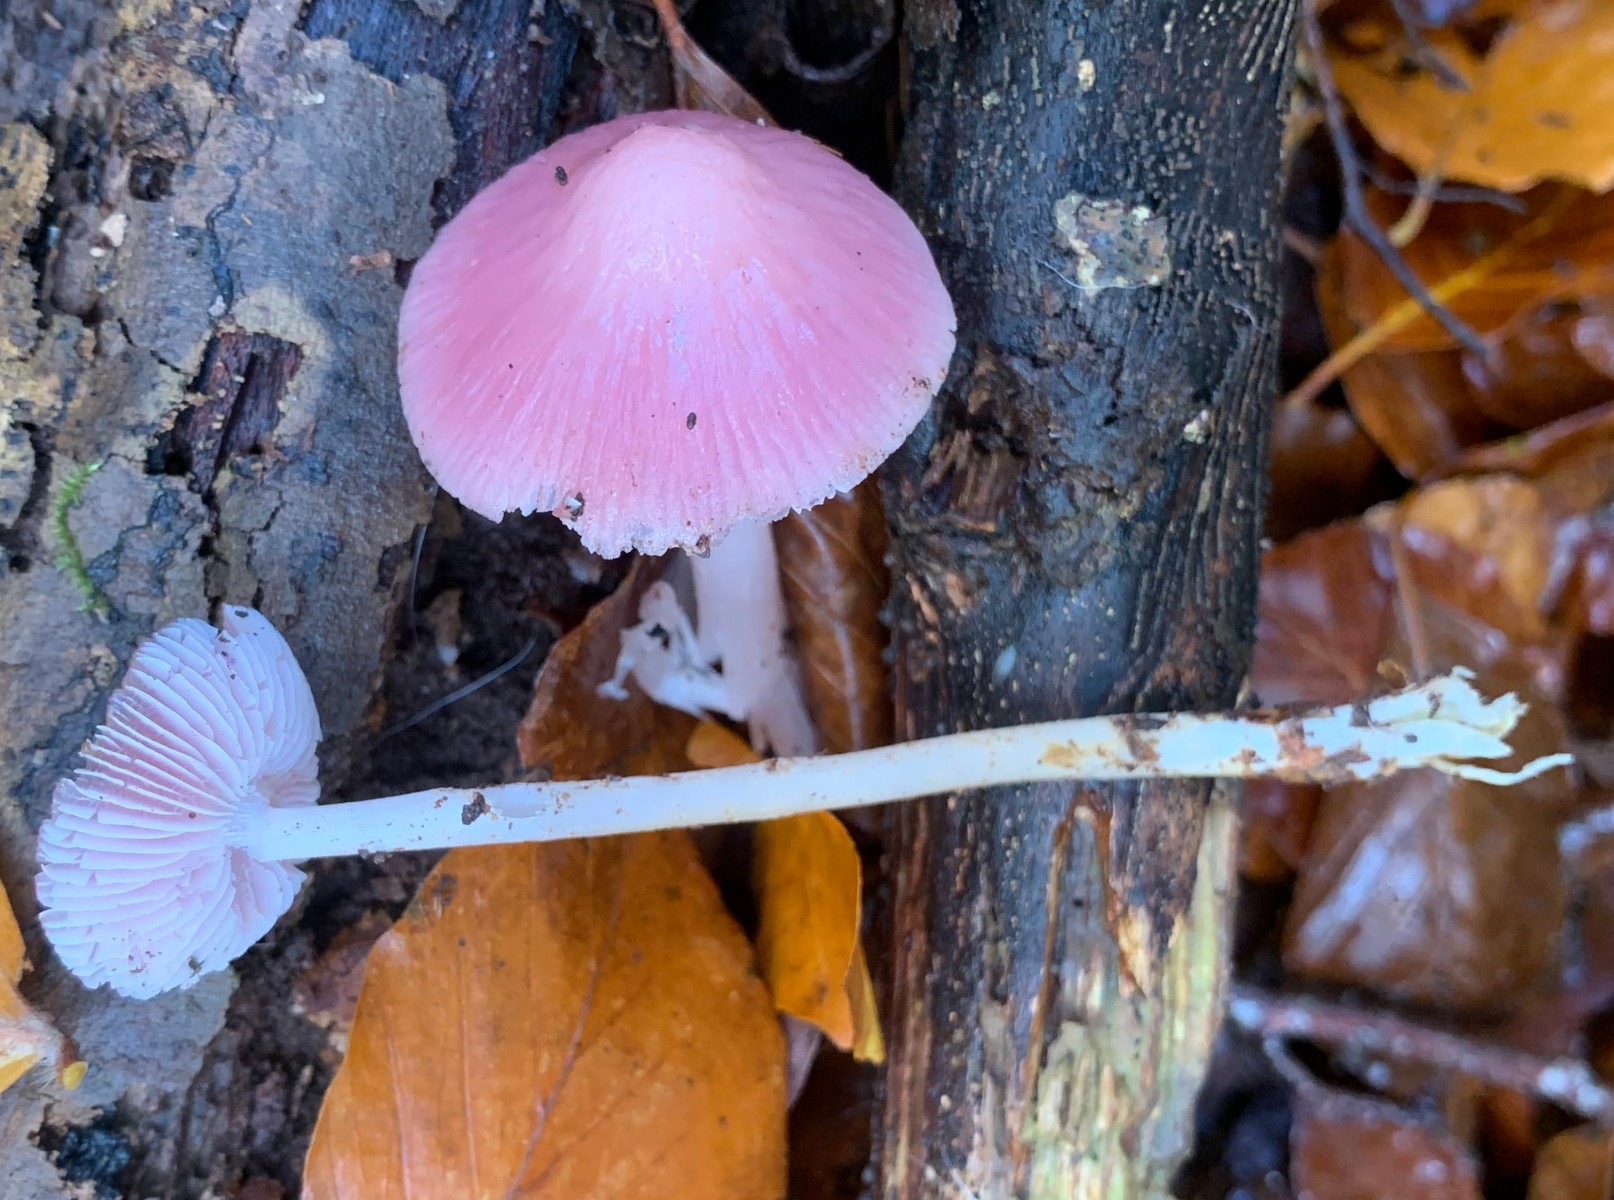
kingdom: Fungi
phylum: Basidiomycota
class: Agaricomycetes
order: Agaricales
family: Mycenaceae
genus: Mycena
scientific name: Mycena rosea
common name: rosa huesvamp
